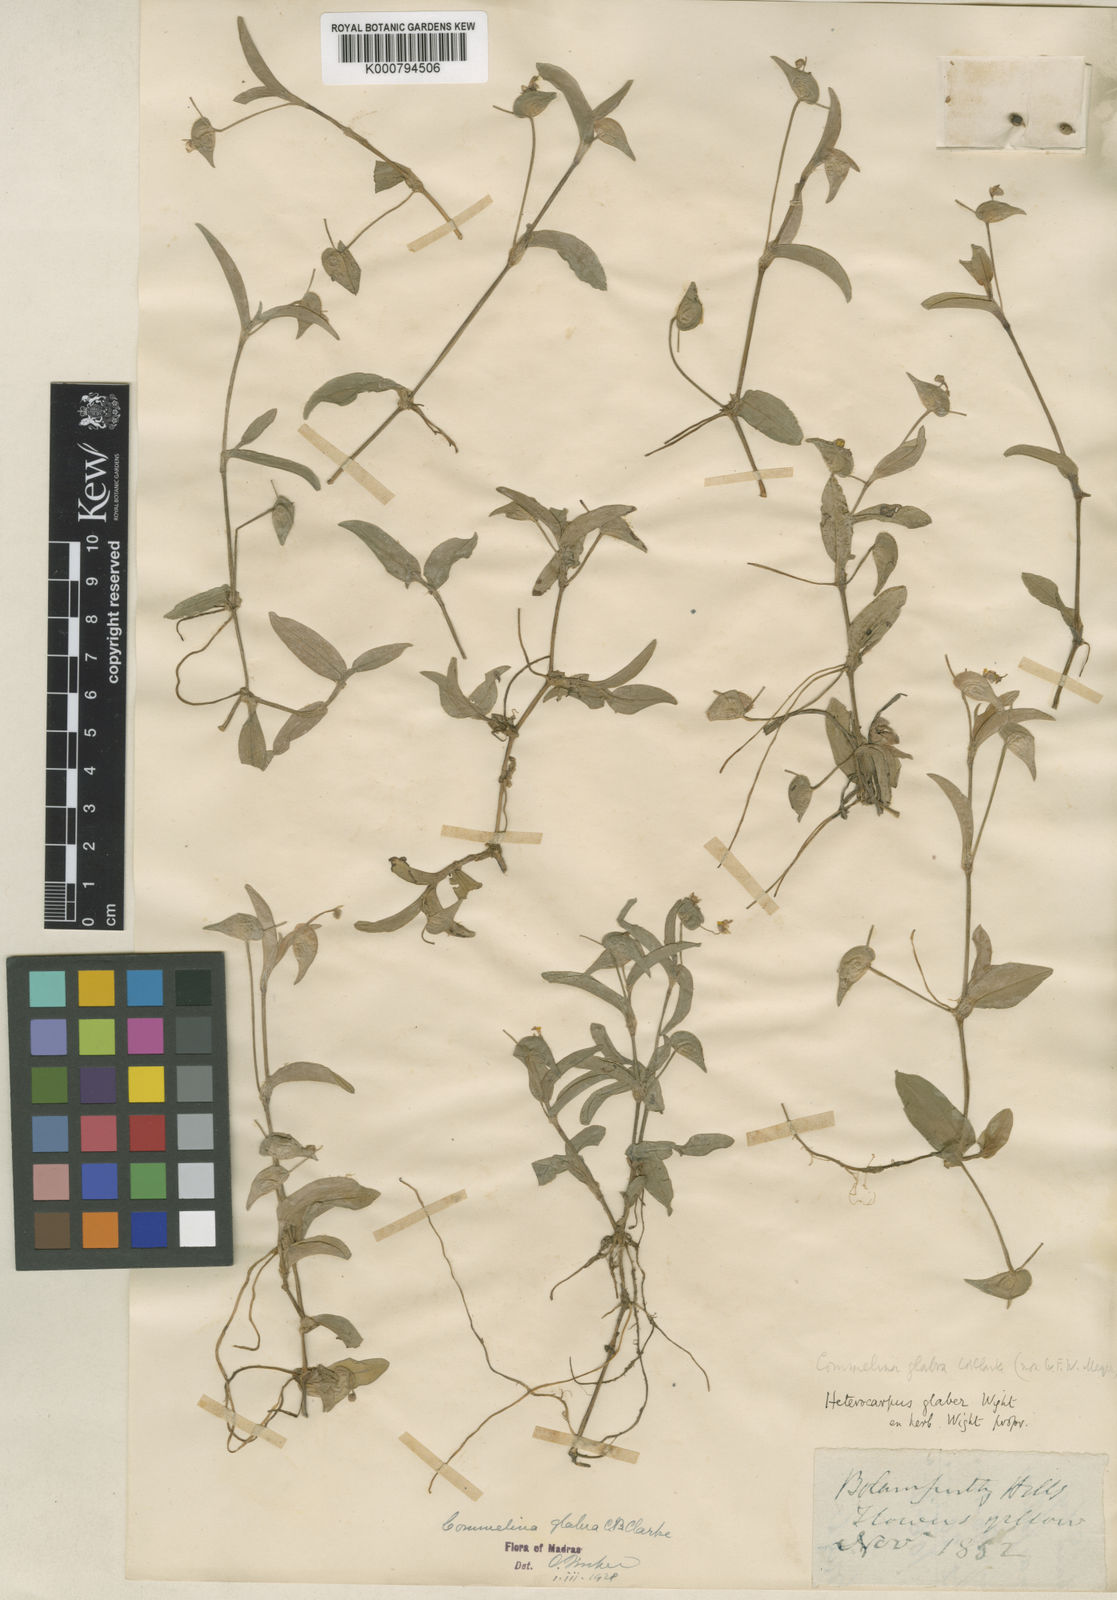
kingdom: Plantae
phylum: Tracheophyta
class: Liliopsida
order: Commelinales
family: Commelinaceae
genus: Commelina
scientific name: Commelina
